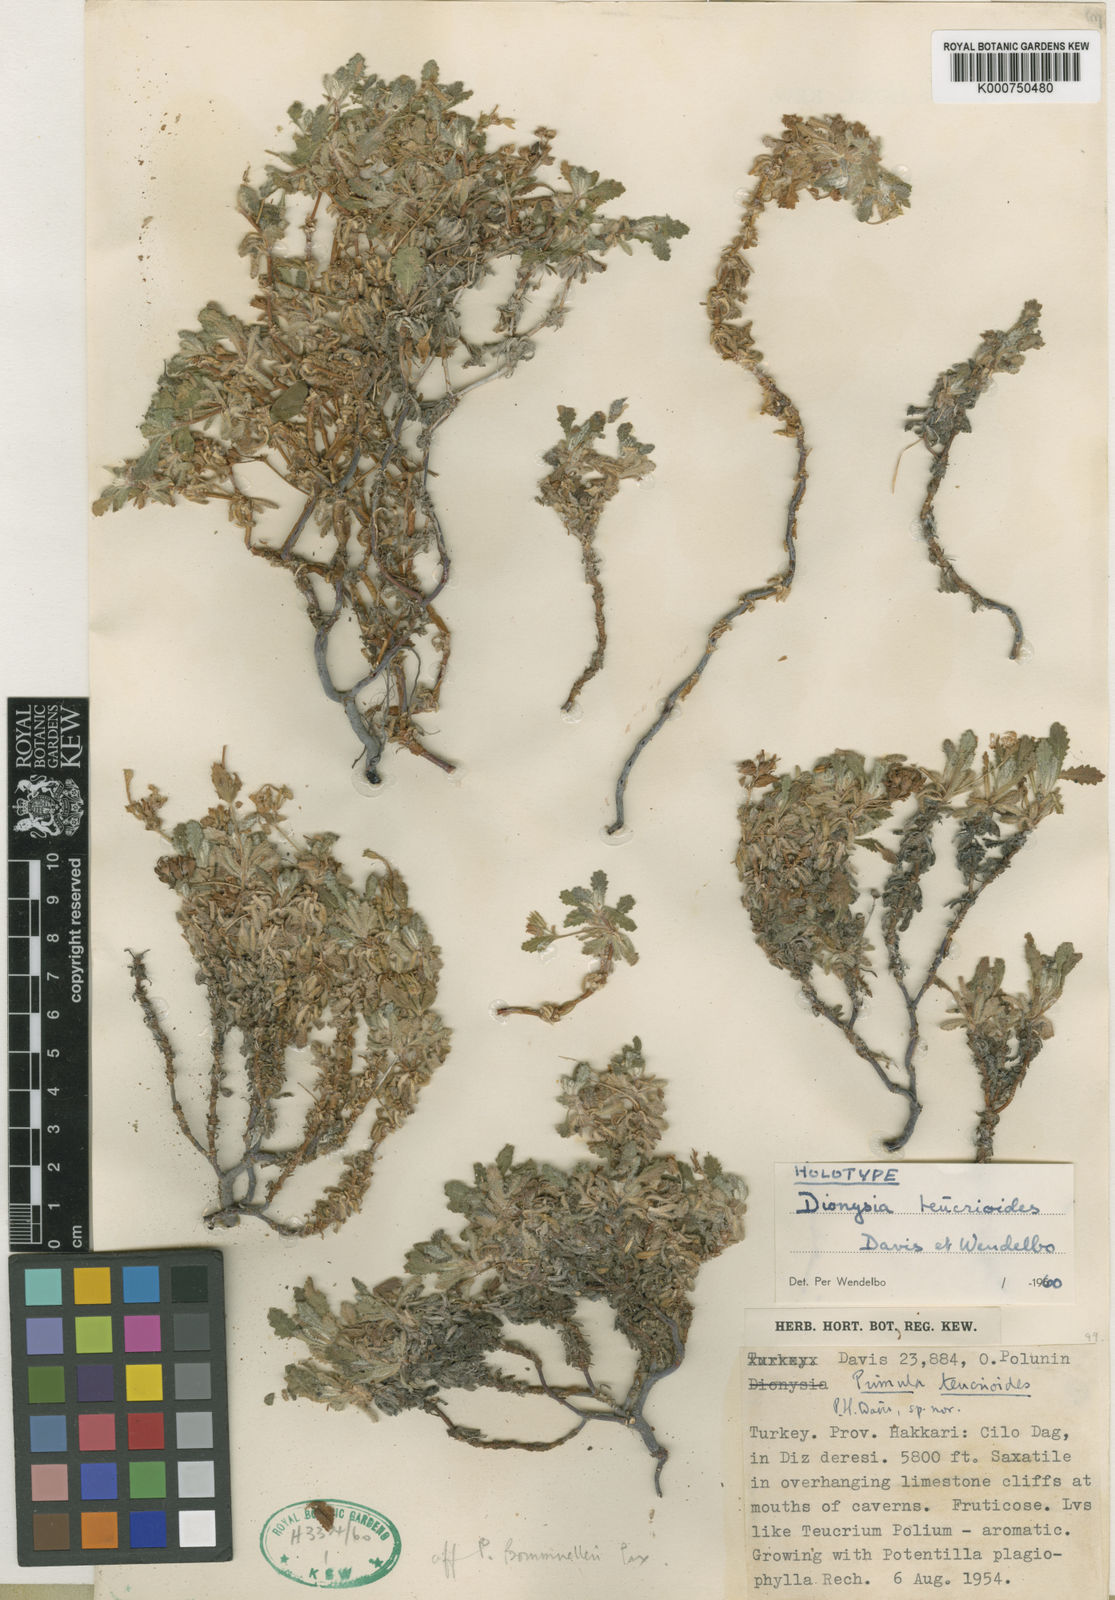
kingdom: Plantae
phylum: Tracheophyta
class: Magnoliopsida
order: Ericales
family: Primulaceae
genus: Dionysia
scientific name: Dionysia teucrioides
